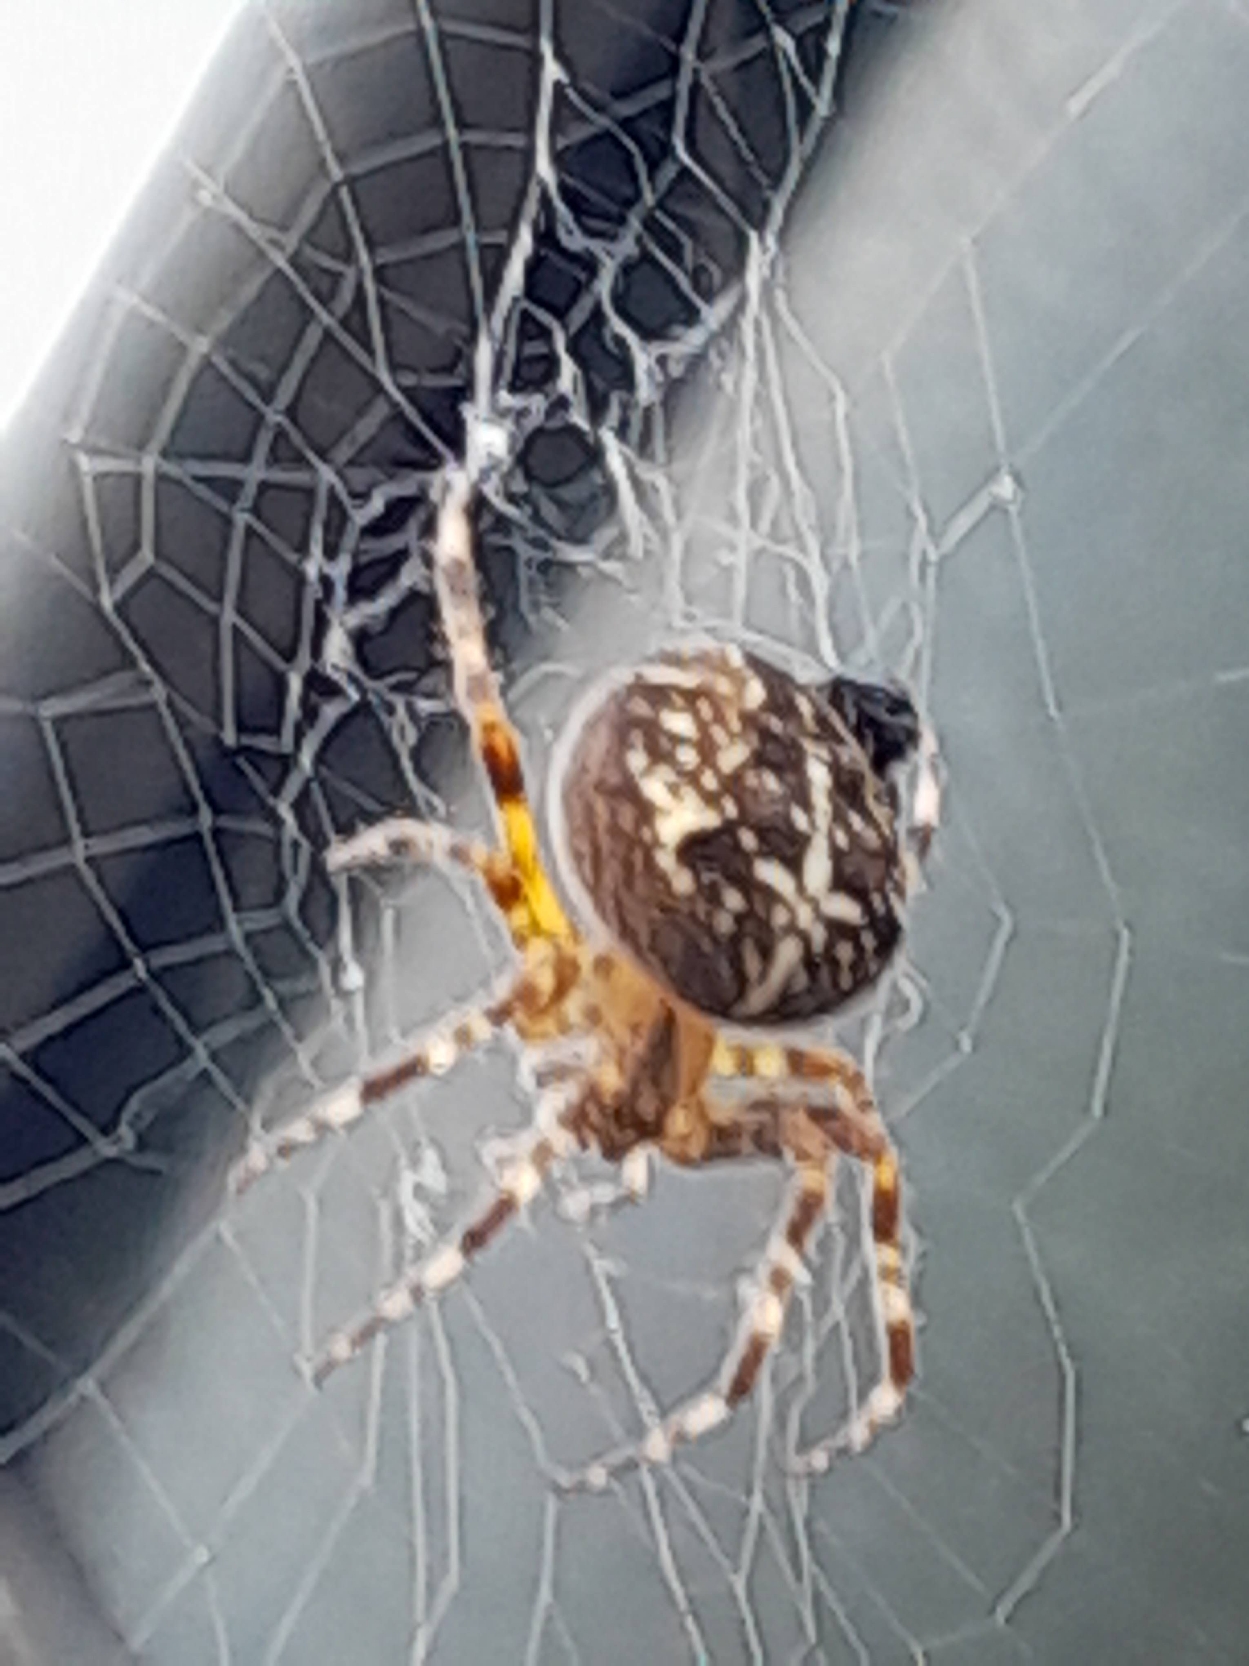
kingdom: Animalia
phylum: Arthropoda
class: Arachnida
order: Araneae
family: Araneidae
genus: Araneus
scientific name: Araneus diadematus
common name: Korsedderkop
